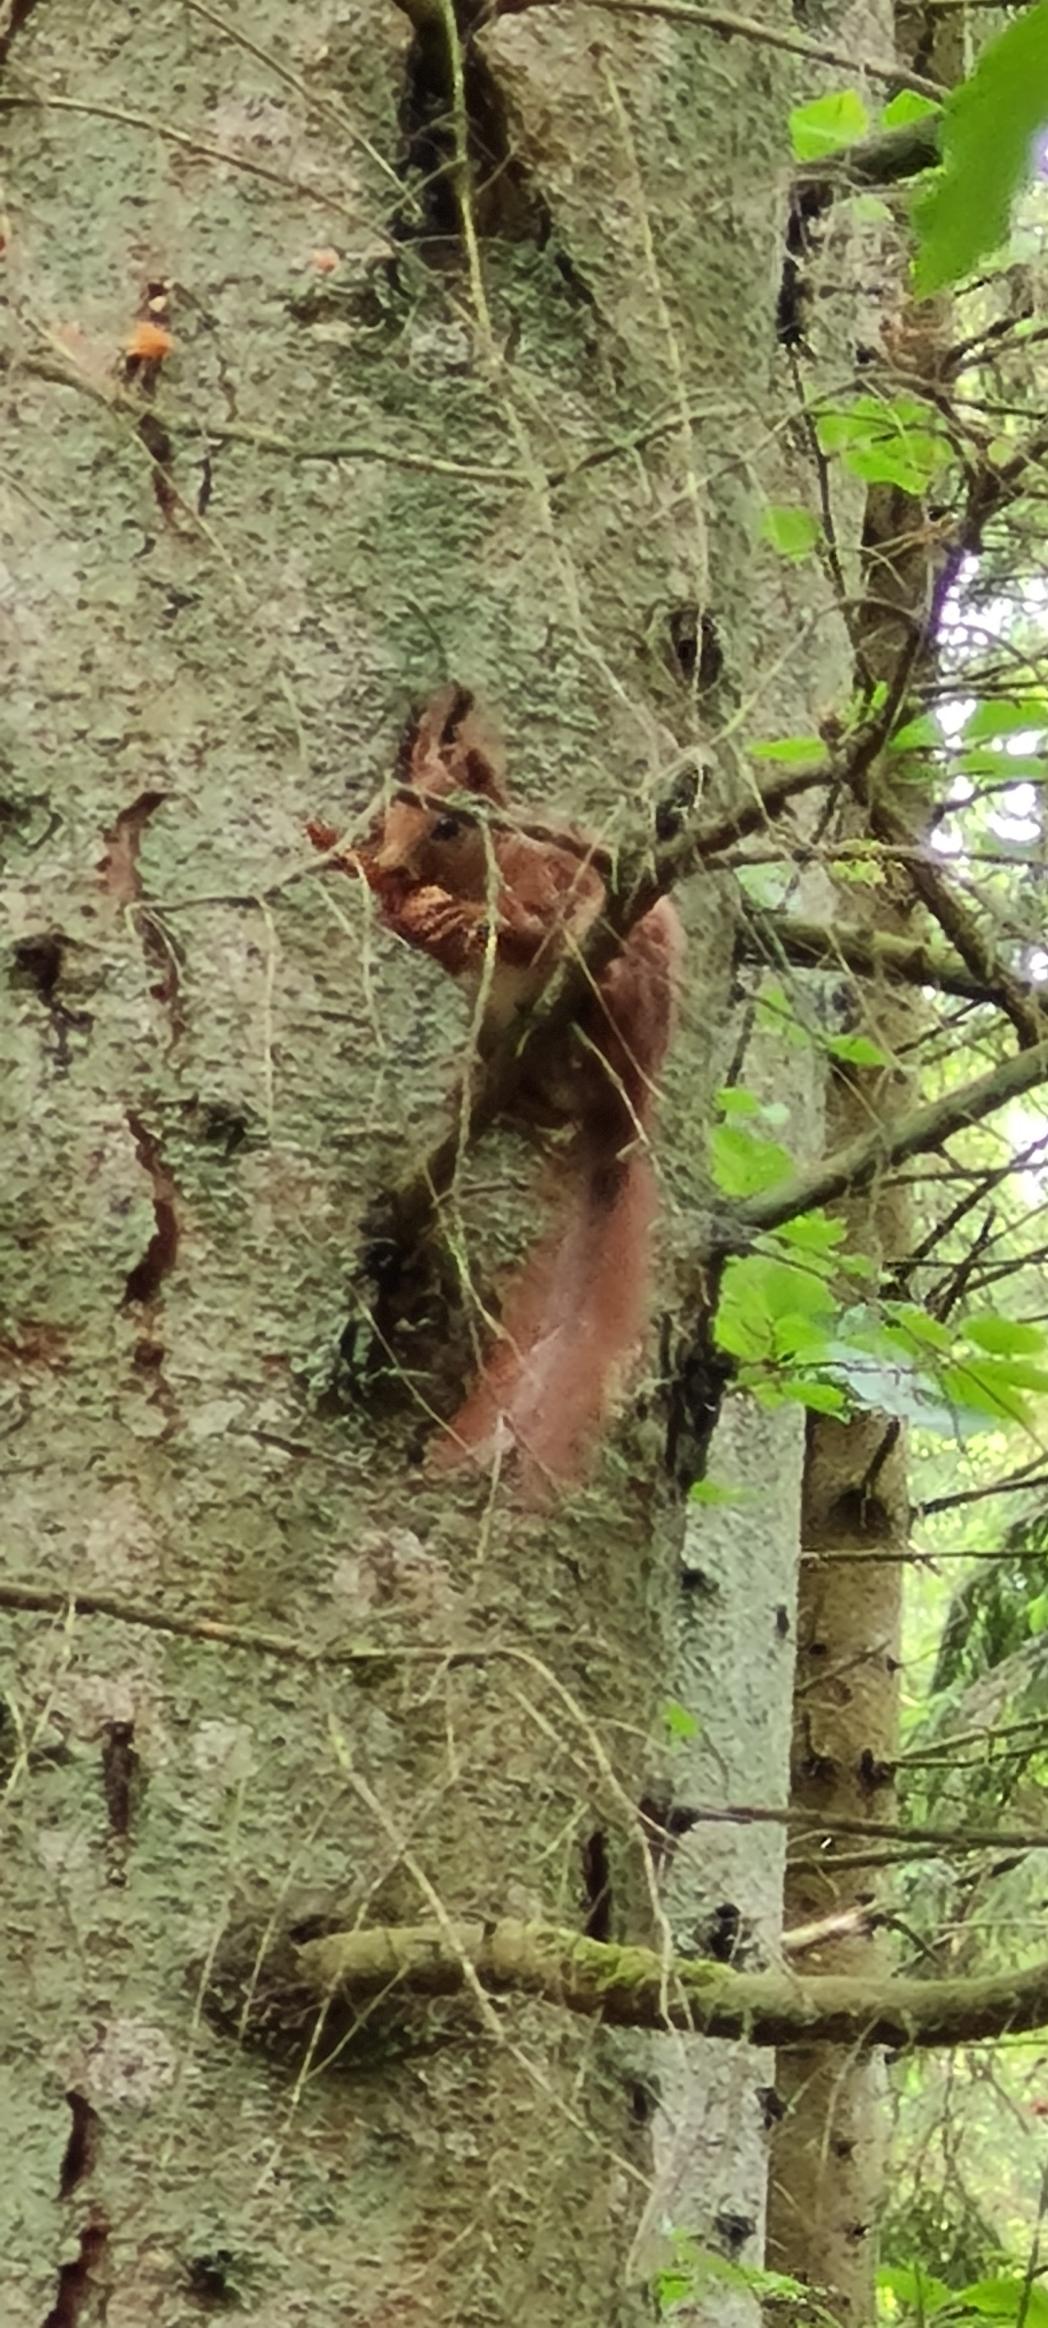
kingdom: Animalia
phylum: Chordata
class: Mammalia
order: Rodentia
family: Sciuridae
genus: Sciurus
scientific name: Sciurus vulgaris
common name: Egern
